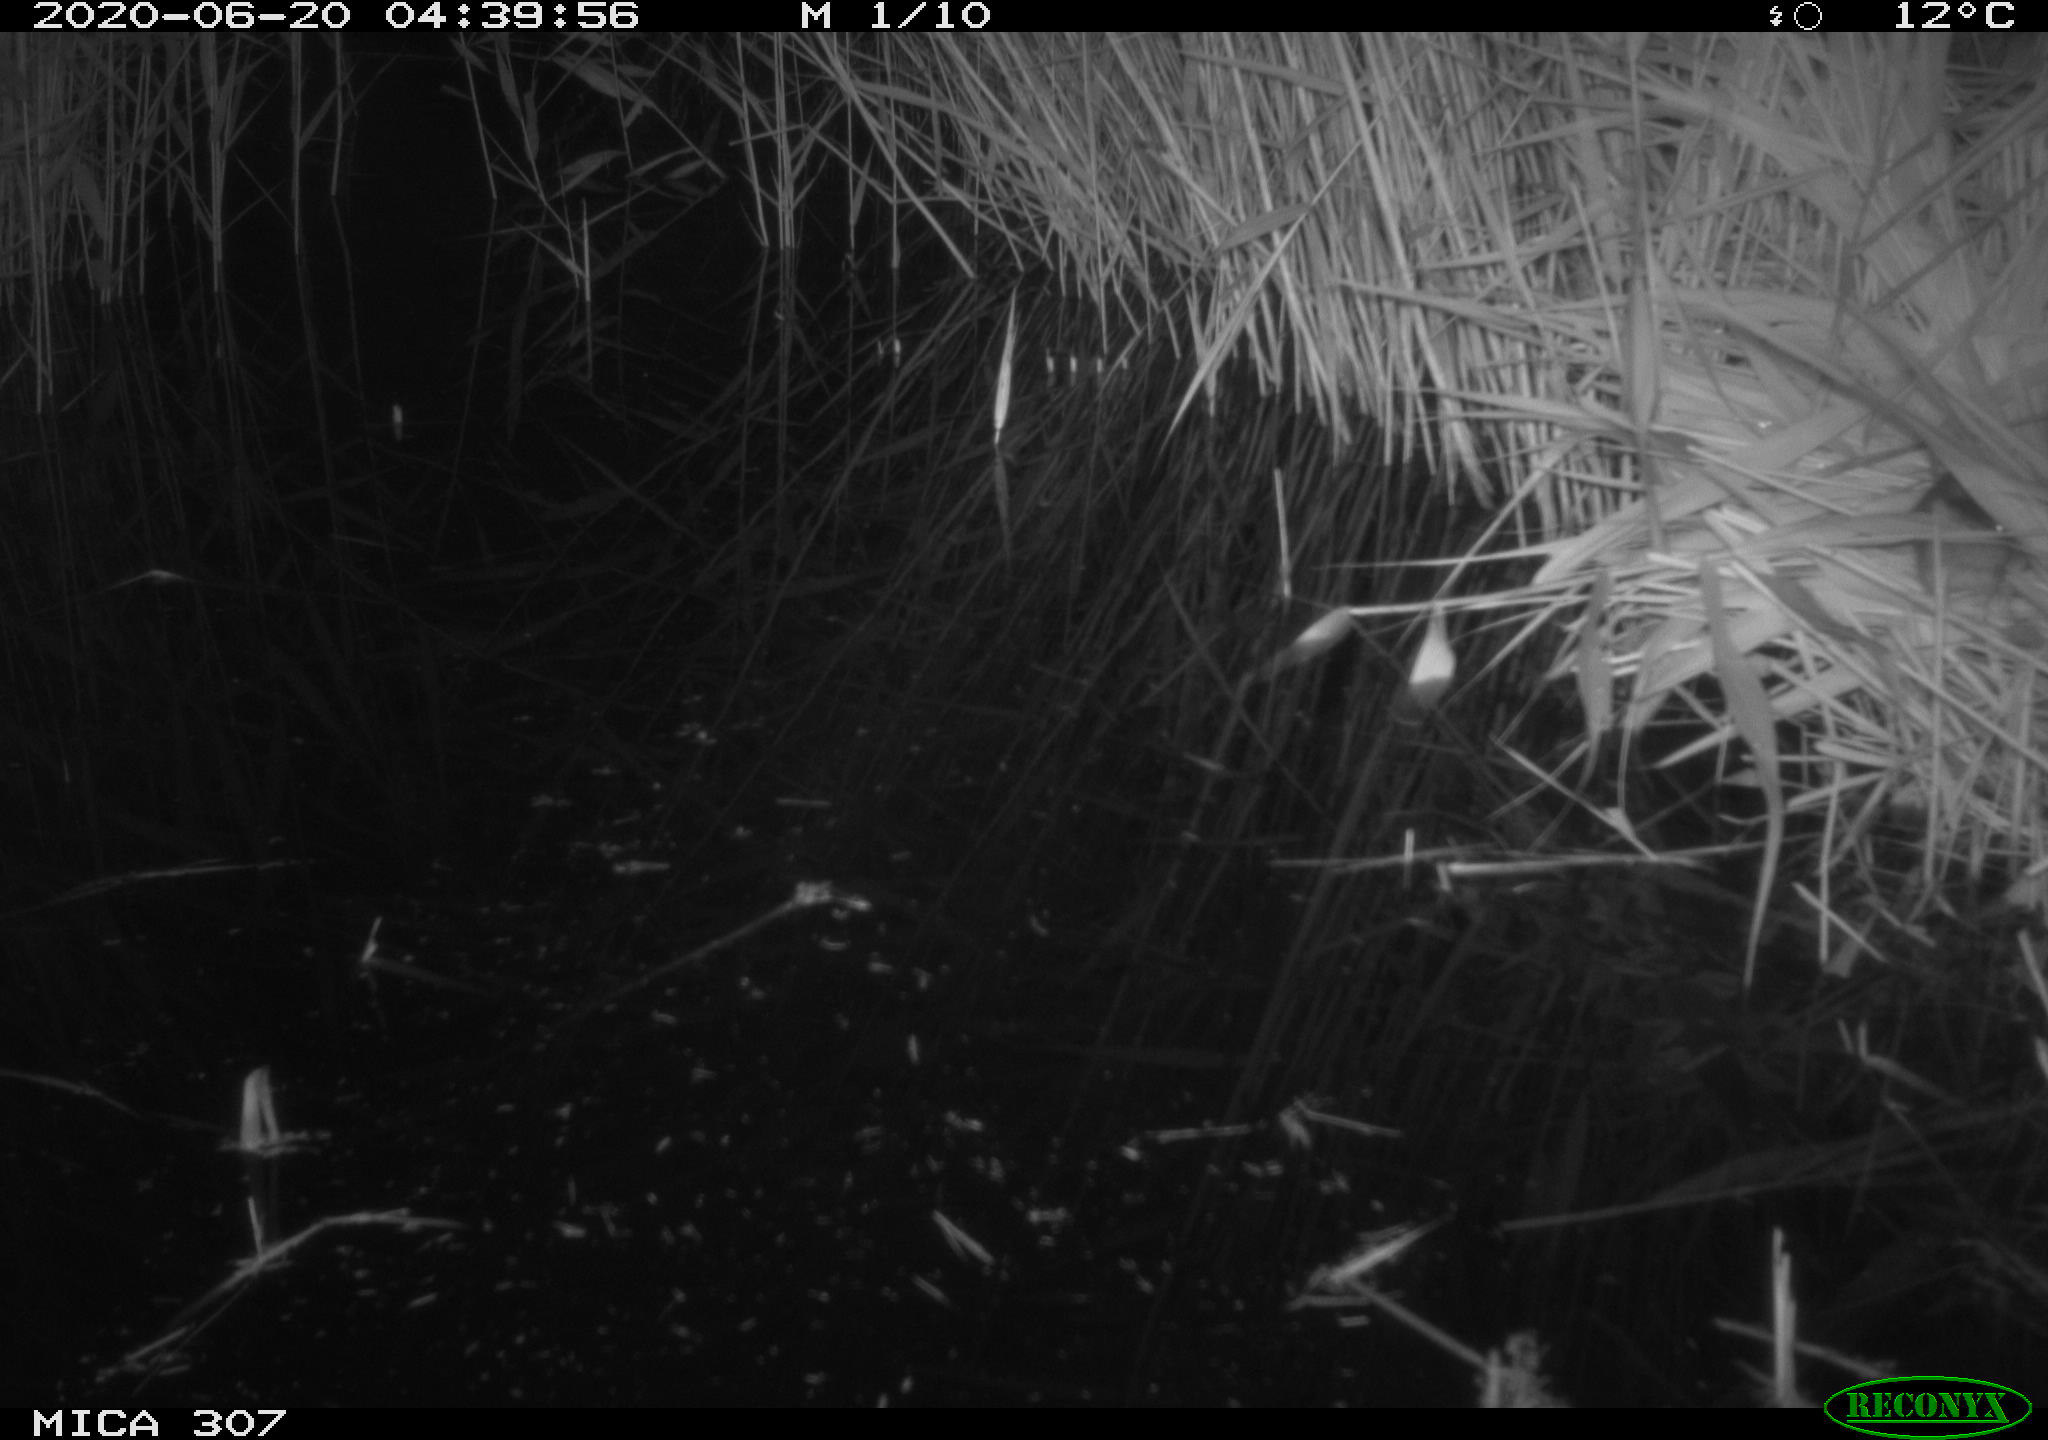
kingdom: Animalia
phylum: Chordata
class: Mammalia
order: Rodentia
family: Muridae
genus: Rattus
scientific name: Rattus norvegicus
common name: Brown rat
